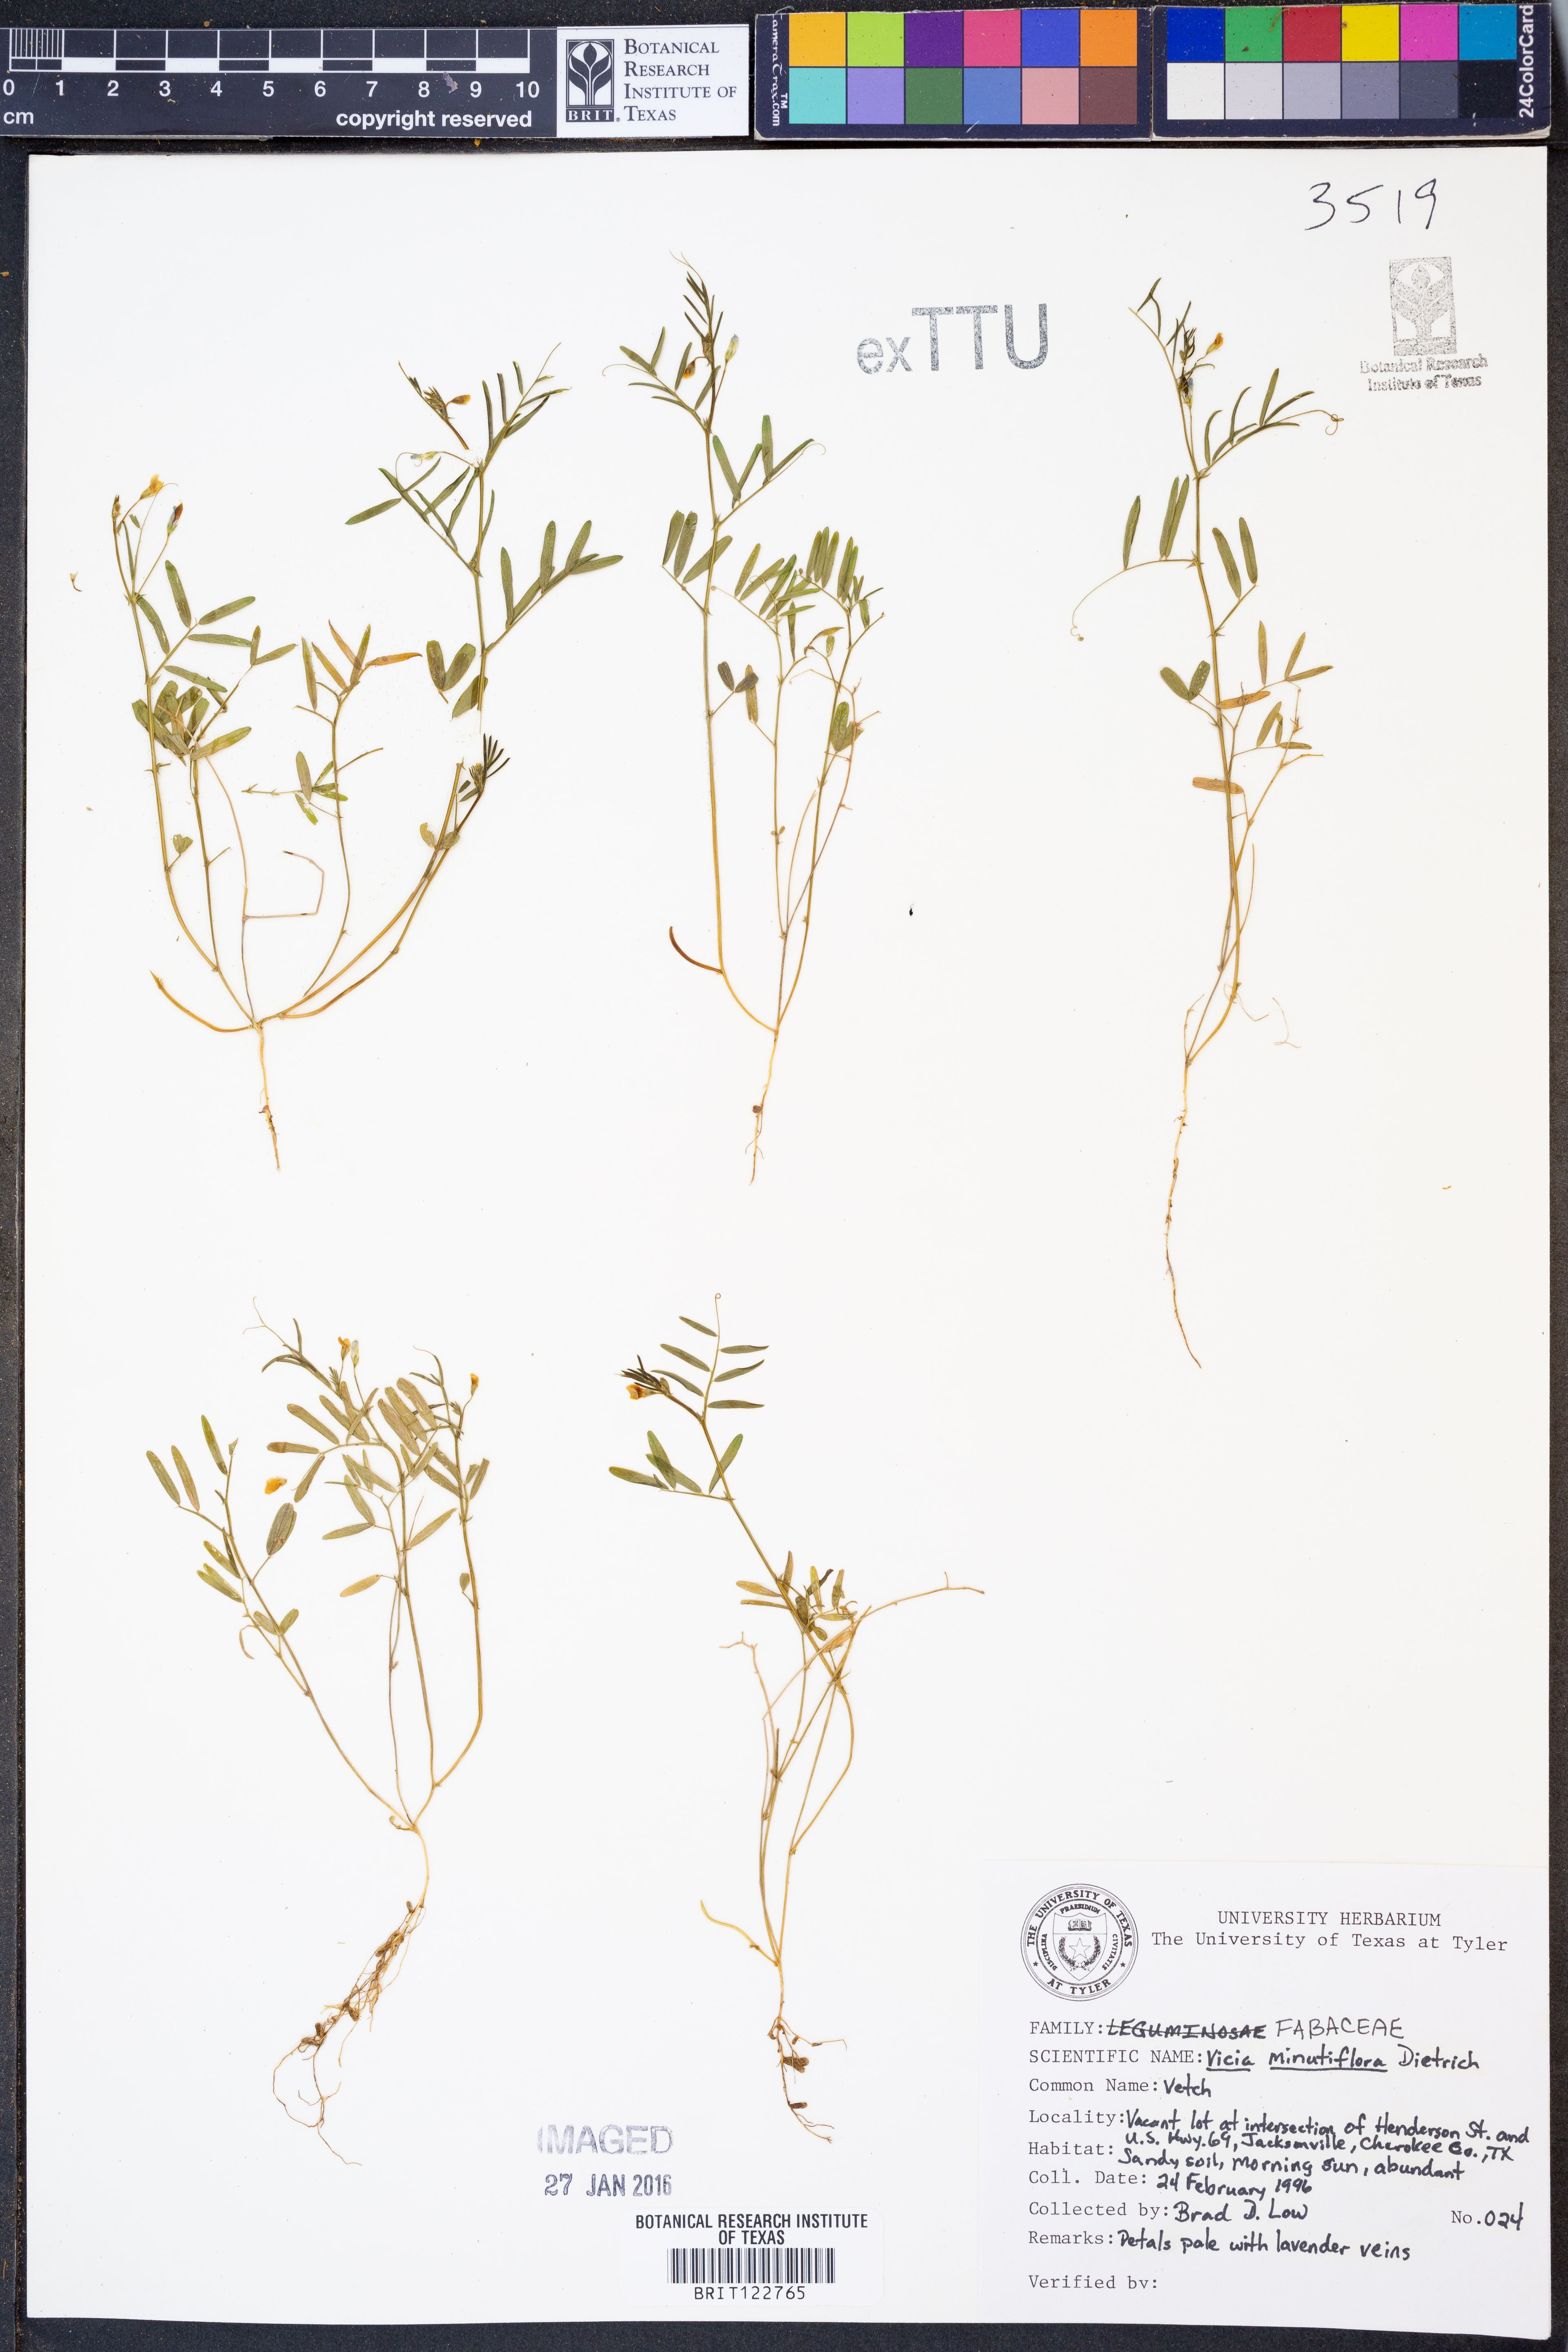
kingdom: Plantae
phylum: Tracheophyta
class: Magnoliopsida
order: Fabales
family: Fabaceae
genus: Vicia
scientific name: Vicia minutiflora
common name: Pygmy-flower vetch
